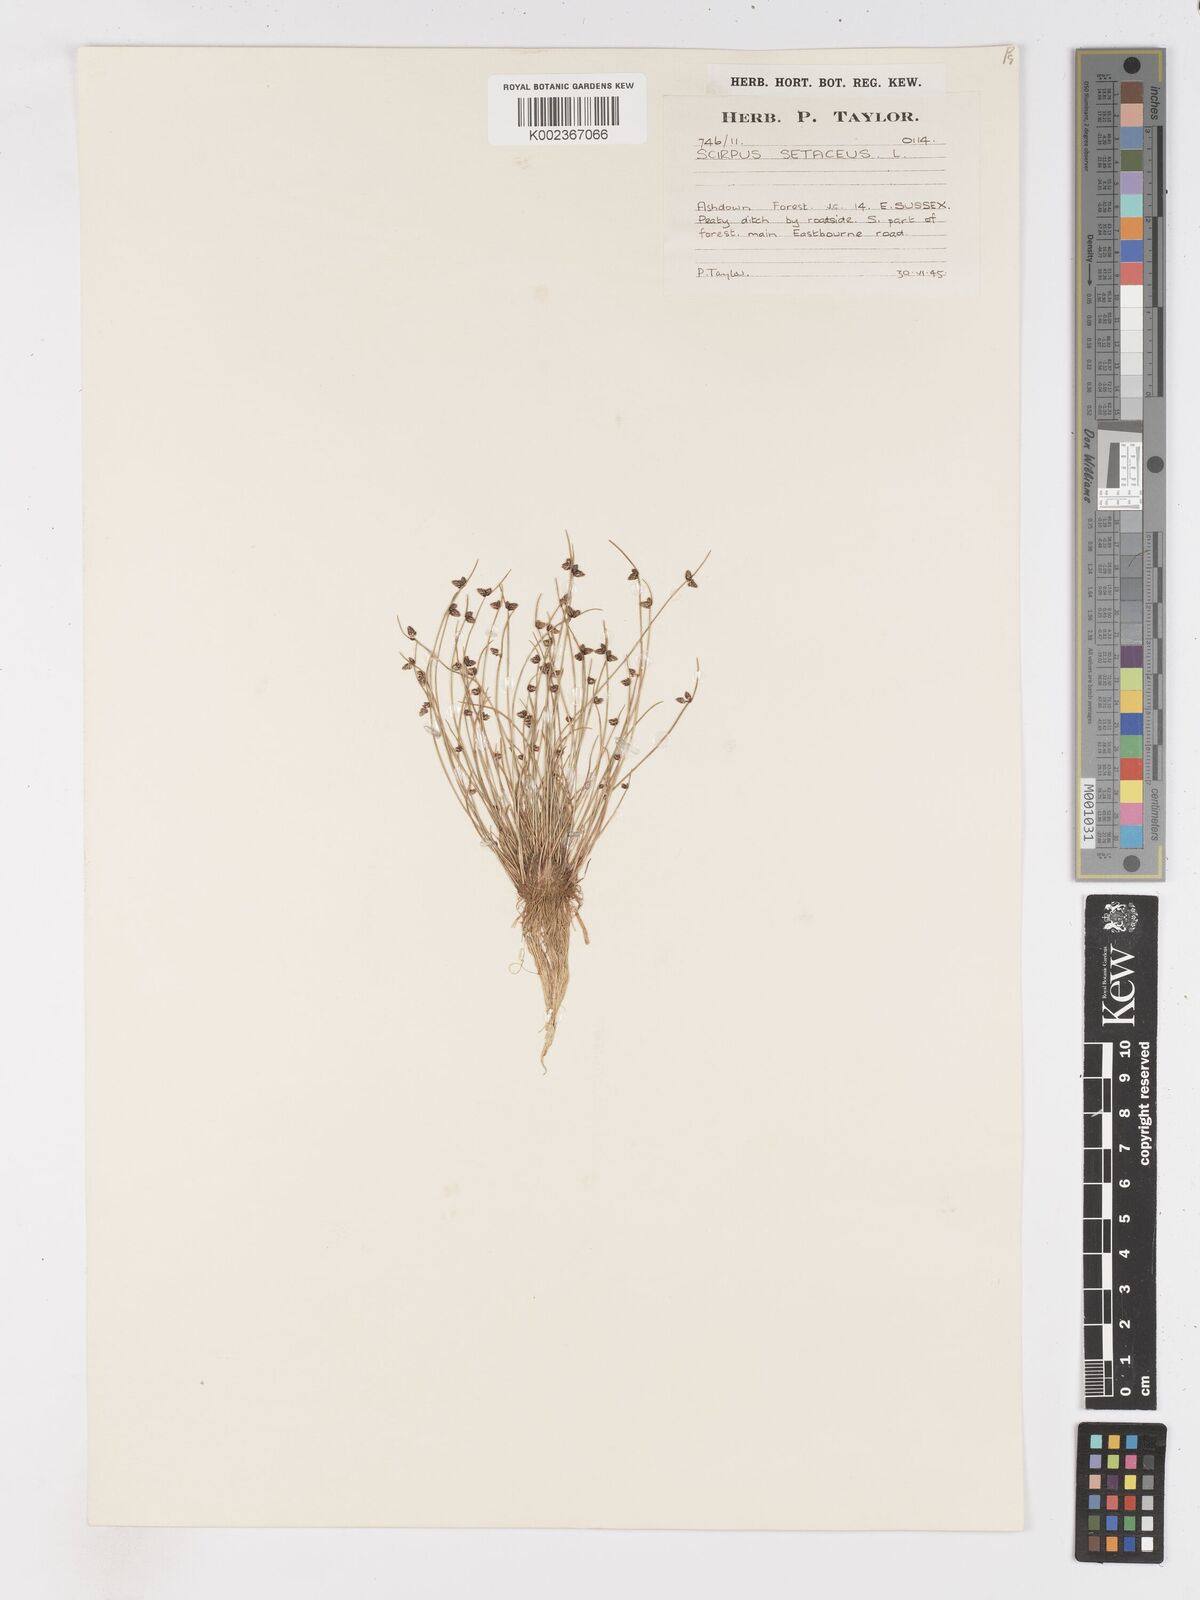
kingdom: Plantae
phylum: Tracheophyta
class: Liliopsida
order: Poales
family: Cyperaceae
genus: Isolepis
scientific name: Isolepis setacea
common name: Bristle club-rush
